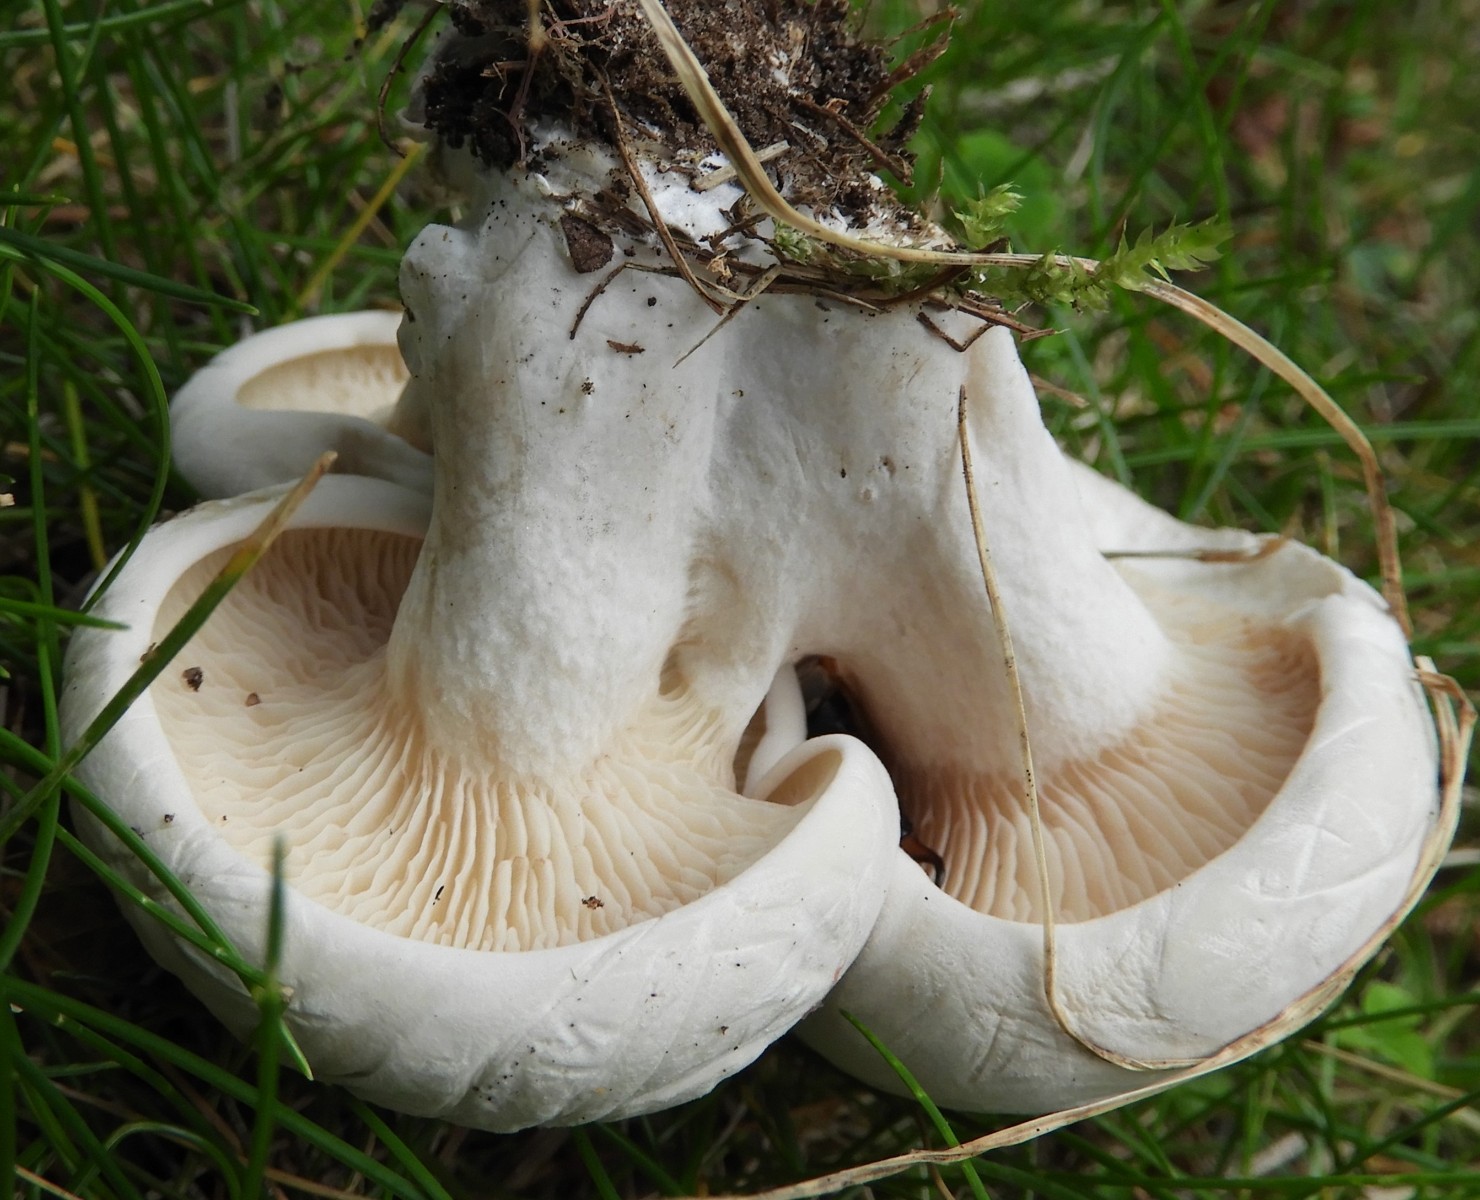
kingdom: Fungi
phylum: Basidiomycota
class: Agaricomycetes
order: Agaricales
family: Entolomataceae
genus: Clitopilus
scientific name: Clitopilus prunulus
